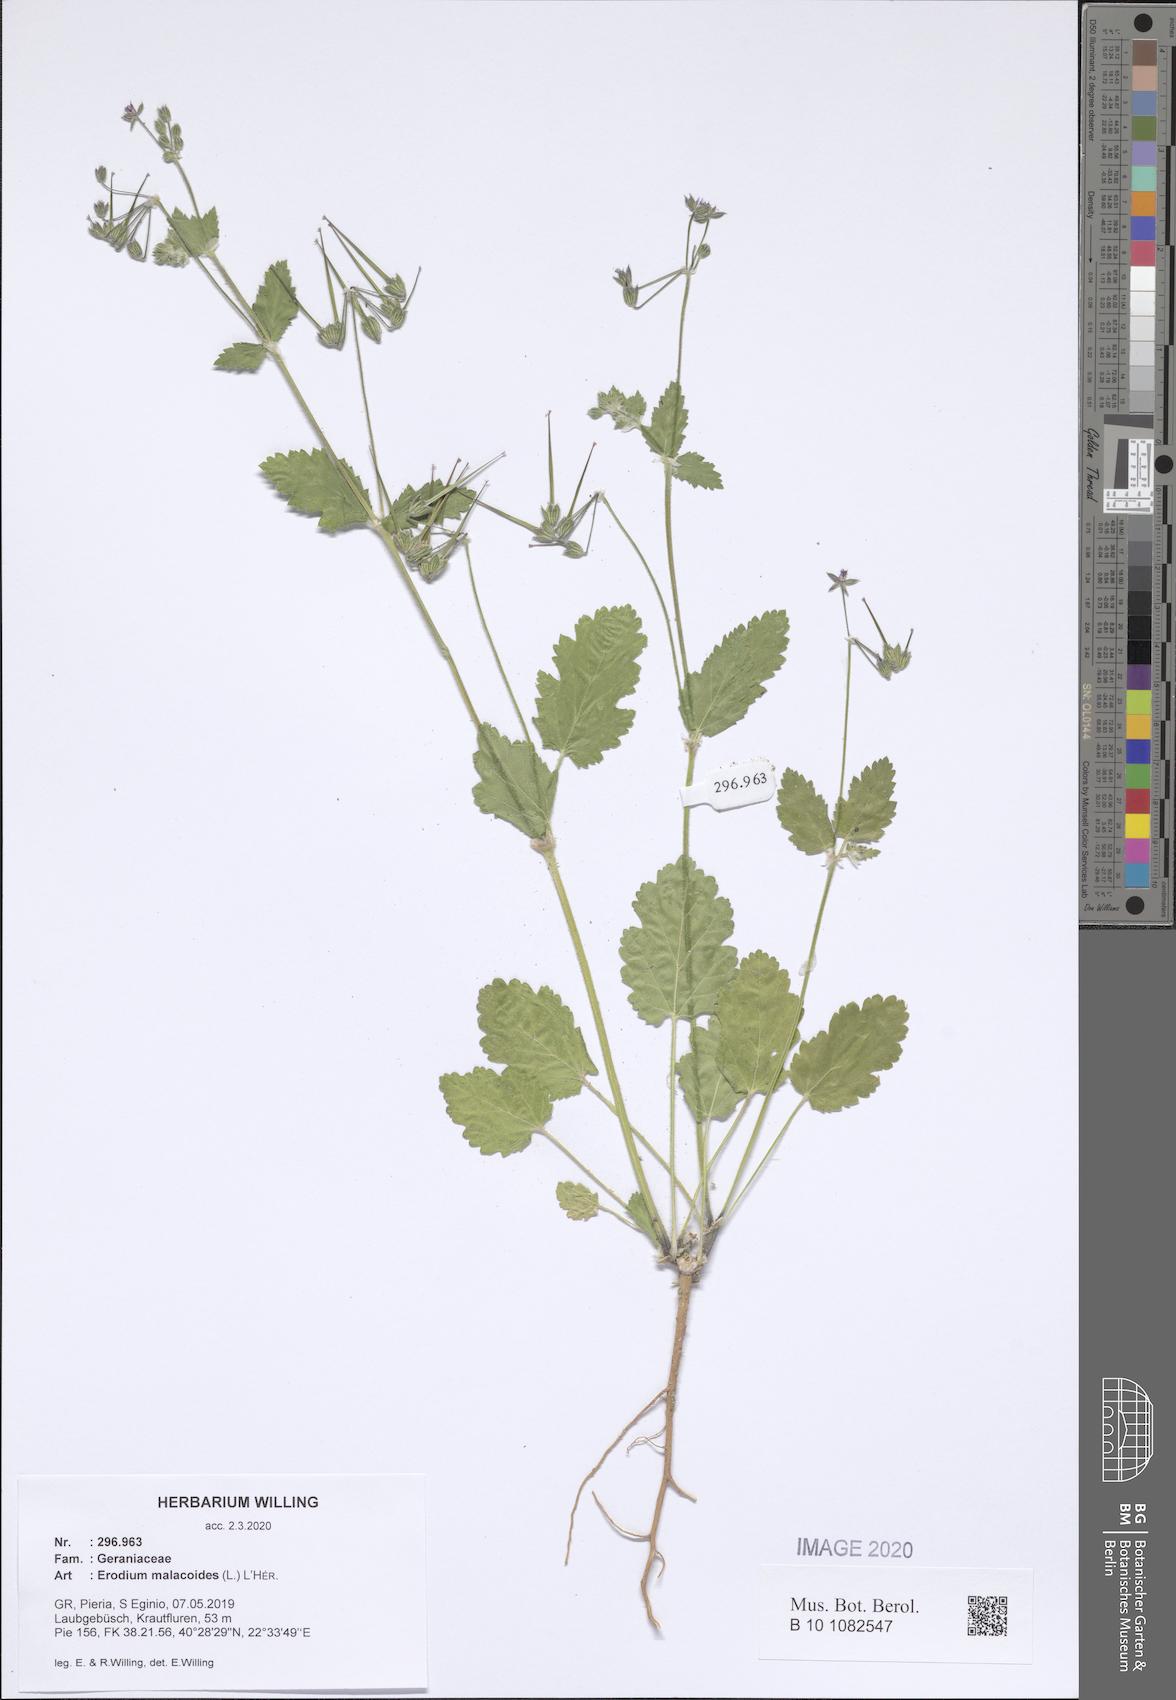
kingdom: Plantae
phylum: Tracheophyta
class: Magnoliopsida
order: Geraniales
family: Geraniaceae
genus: Erodium
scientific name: Erodium malacoides
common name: Soft stork's-bill
